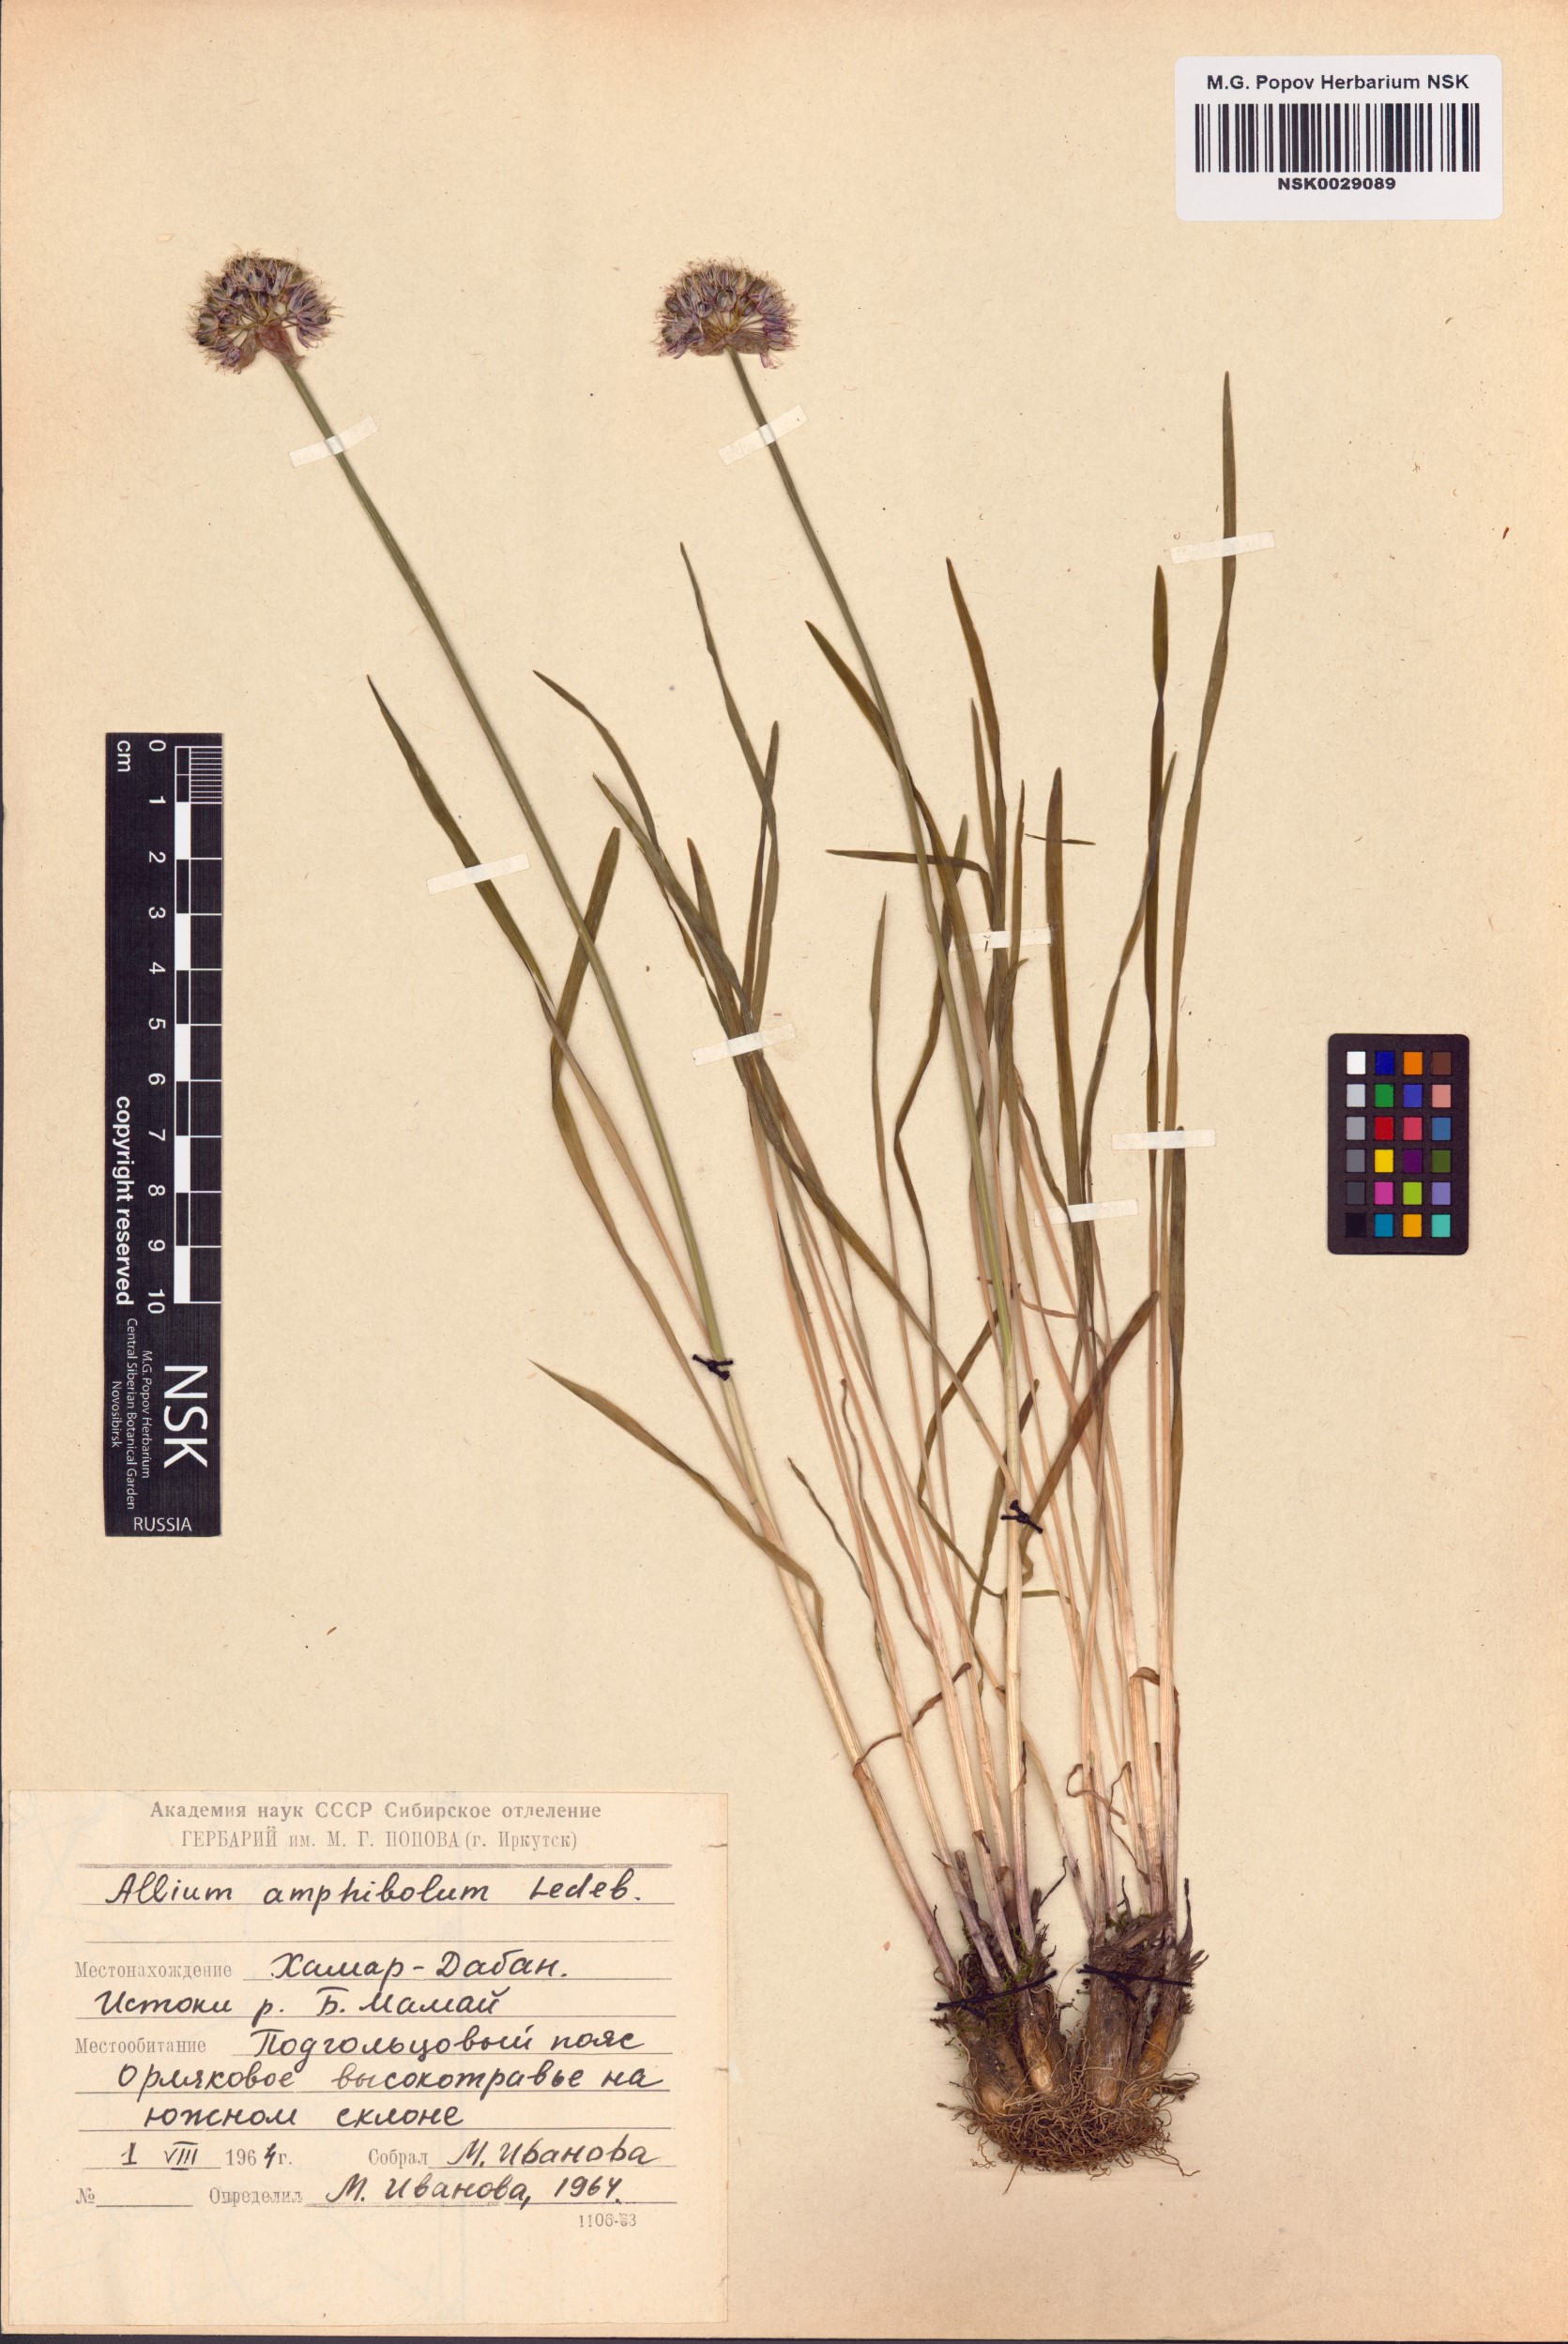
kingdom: Plantae
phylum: Tracheophyta
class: Liliopsida
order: Asparagales
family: Amaryllidaceae
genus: Allium
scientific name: Allium amphibolum
